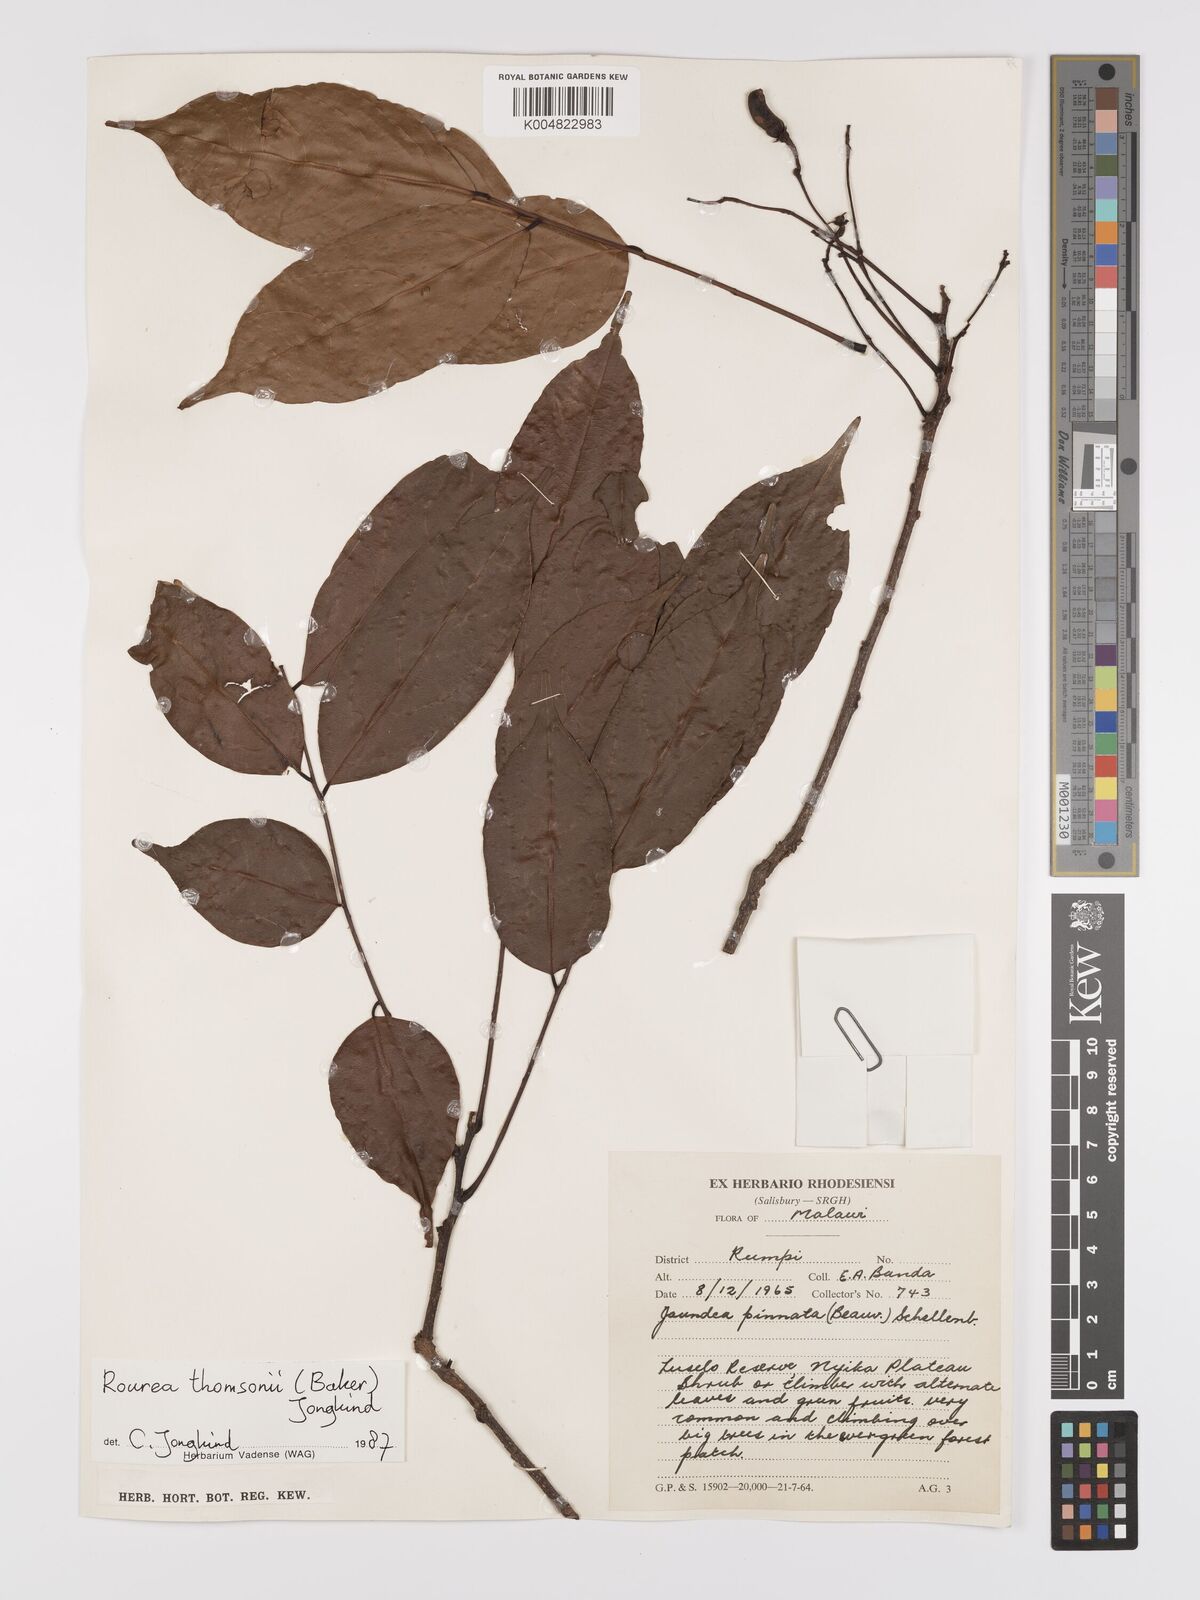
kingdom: Plantae
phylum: Tracheophyta
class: Magnoliopsida
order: Oxalidales
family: Connaraceae
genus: Rourea
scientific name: Rourea pinnata
